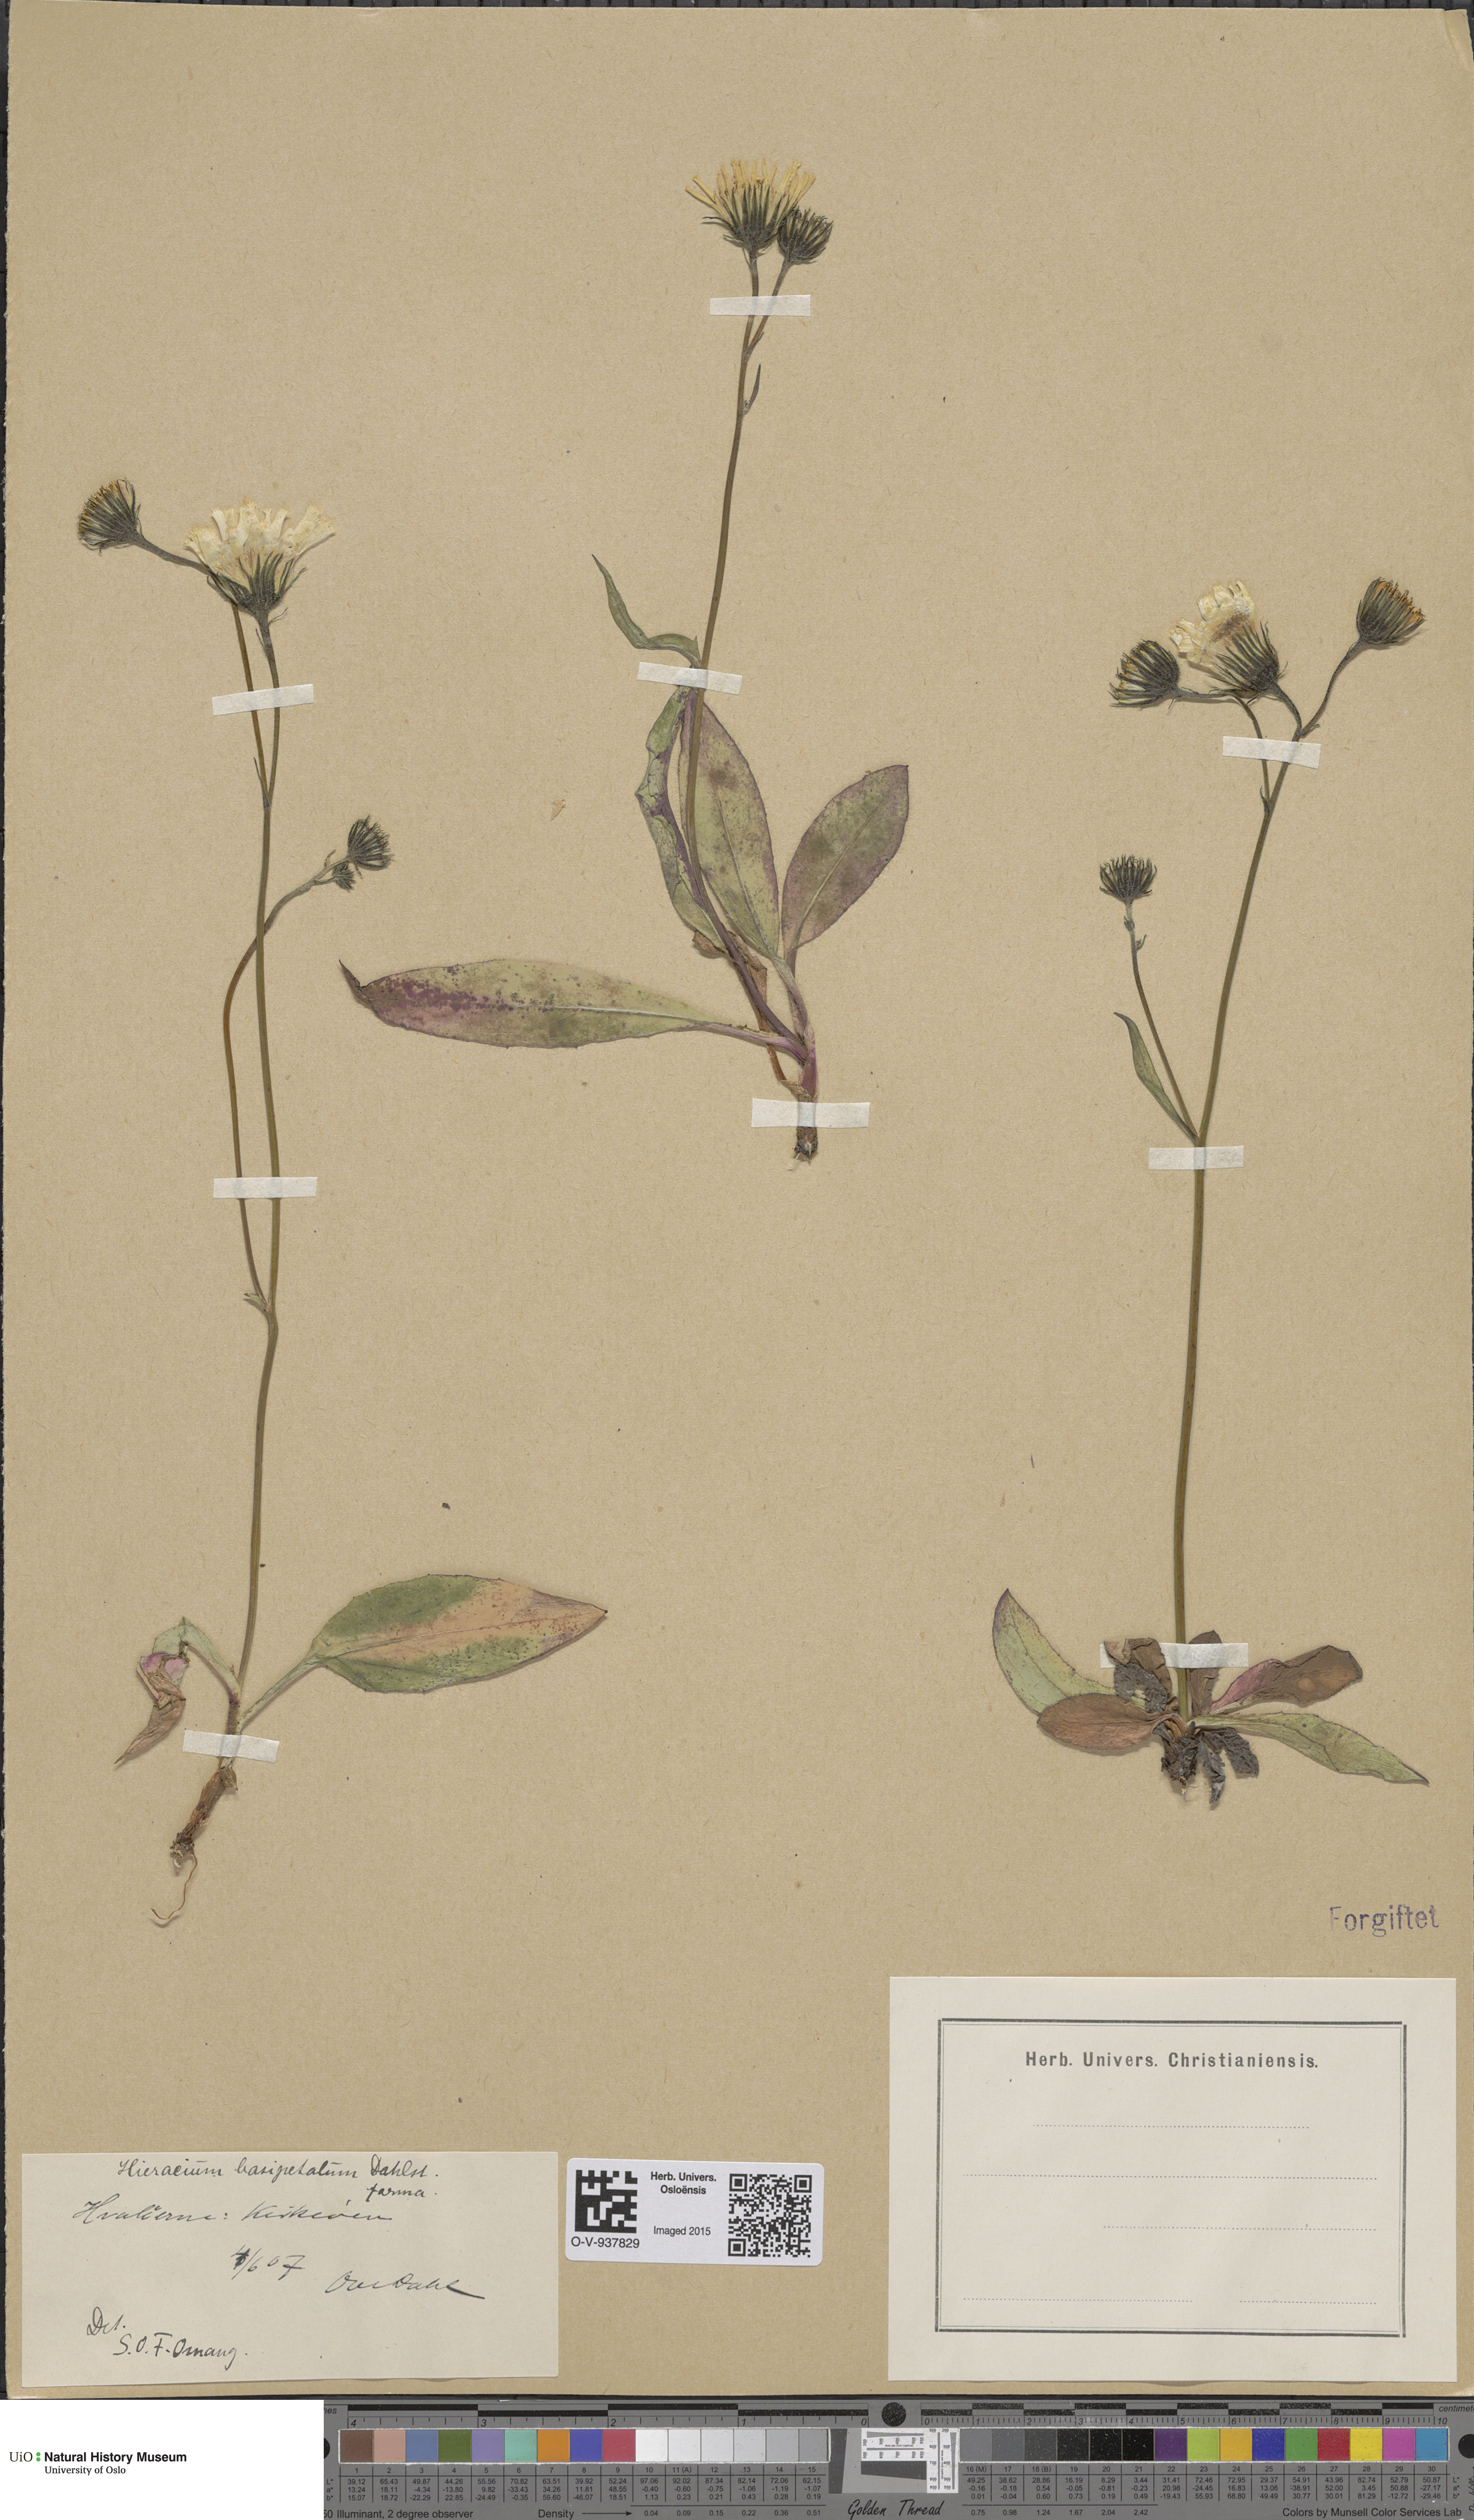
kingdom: Plantae
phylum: Tracheophyta
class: Magnoliopsida
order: Asterales
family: Asteraceae
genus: Hieracium
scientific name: Hieracium
